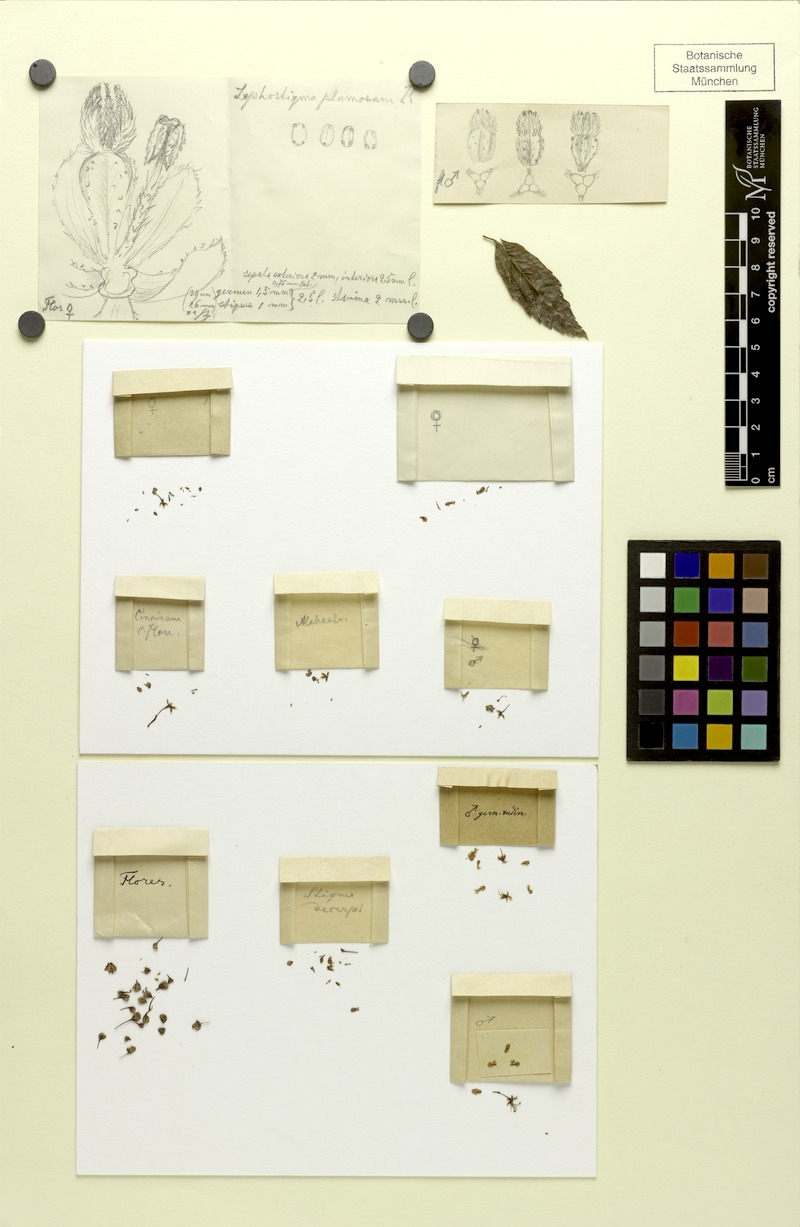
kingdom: Plantae
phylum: Tracheophyta
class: Magnoliopsida
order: Sapindales
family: Sapindaceae
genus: Lophostigma
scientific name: Lophostigma plumosum
